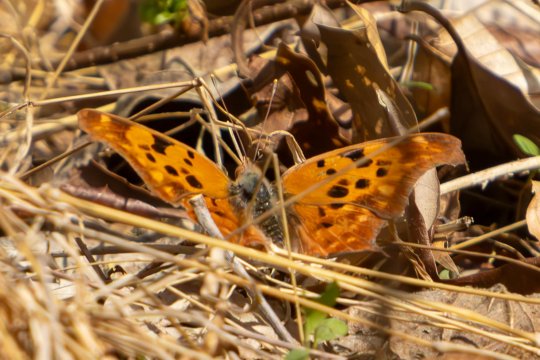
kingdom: Animalia
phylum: Arthropoda
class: Insecta
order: Lepidoptera
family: Nymphalidae
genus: Polygonia
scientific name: Polygonia interrogationis
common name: Question Mark
